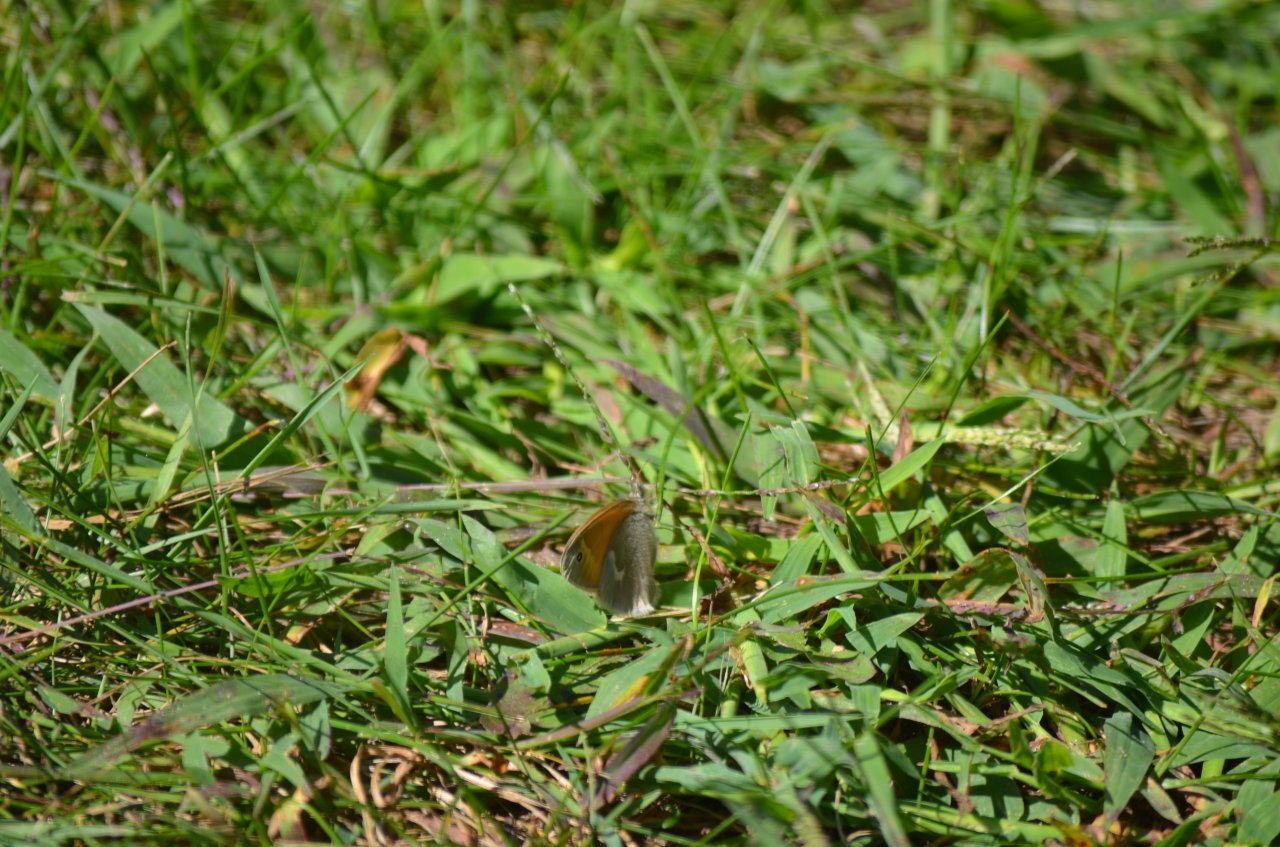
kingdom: Animalia
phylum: Arthropoda
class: Insecta
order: Lepidoptera
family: Nymphalidae
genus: Coenonympha
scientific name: Coenonympha tullia
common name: Large Heath
